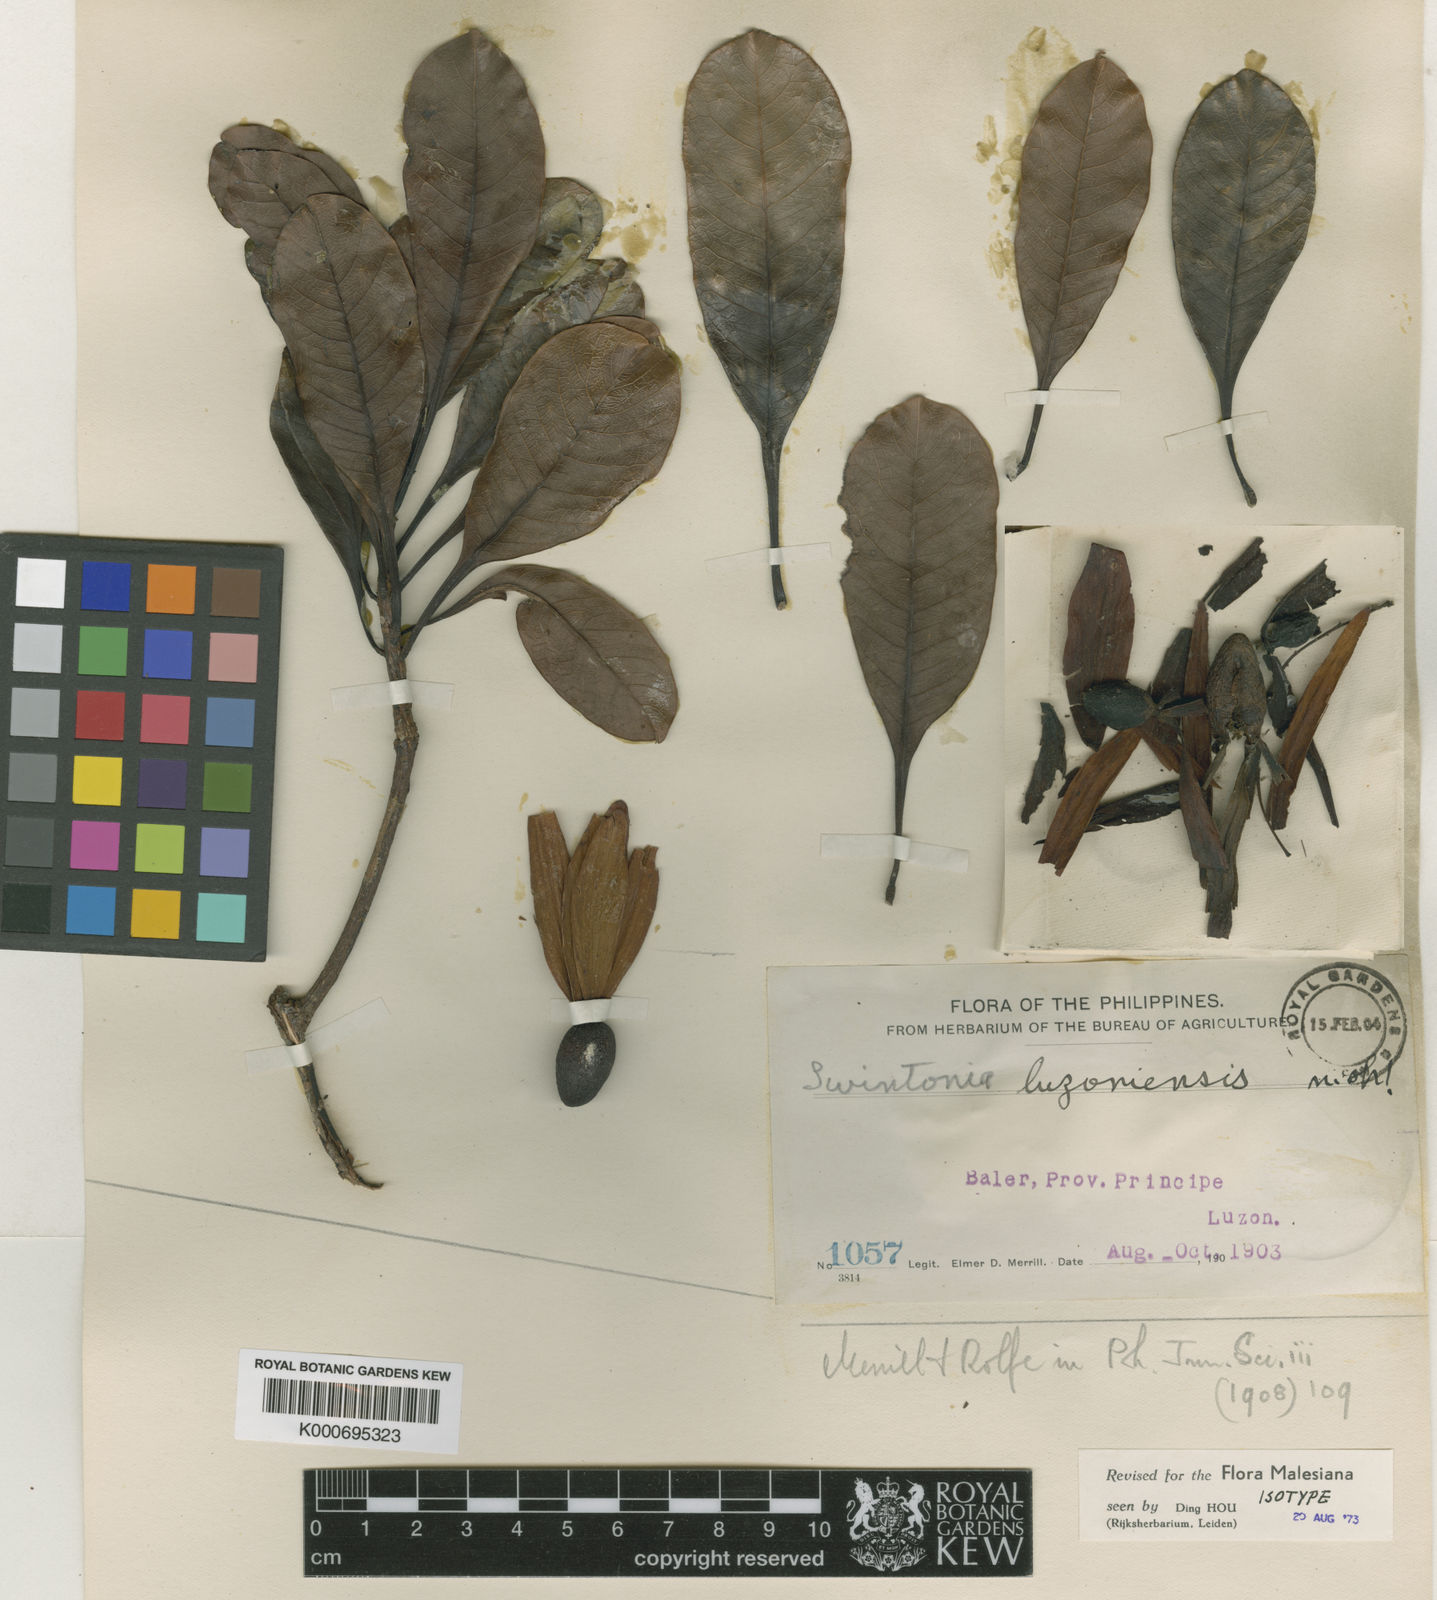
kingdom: Plantae
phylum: Tracheophyta
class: Magnoliopsida
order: Sapindales
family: Anacardiaceae
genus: Swintonia
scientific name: Swintonia acuta
